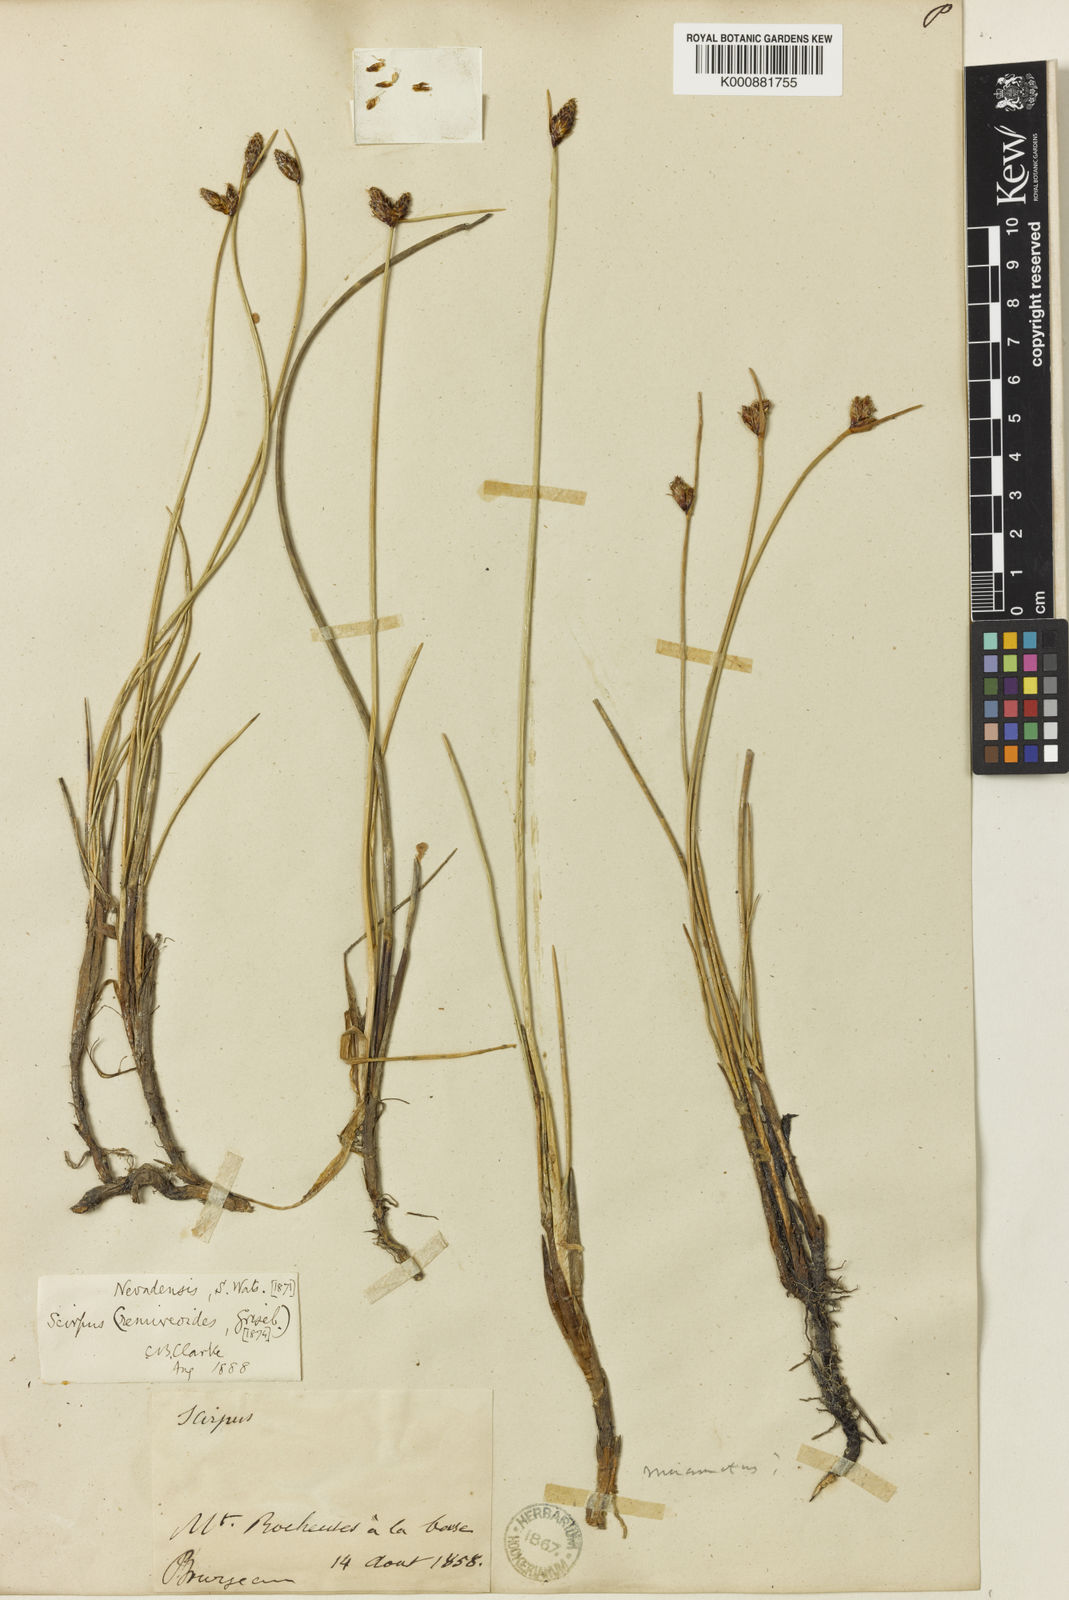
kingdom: Plantae
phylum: Tracheophyta
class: Liliopsida
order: Poales
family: Cyperaceae
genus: Amphiscirpus
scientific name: Amphiscirpus nevadensis
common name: Nevada bulrush
